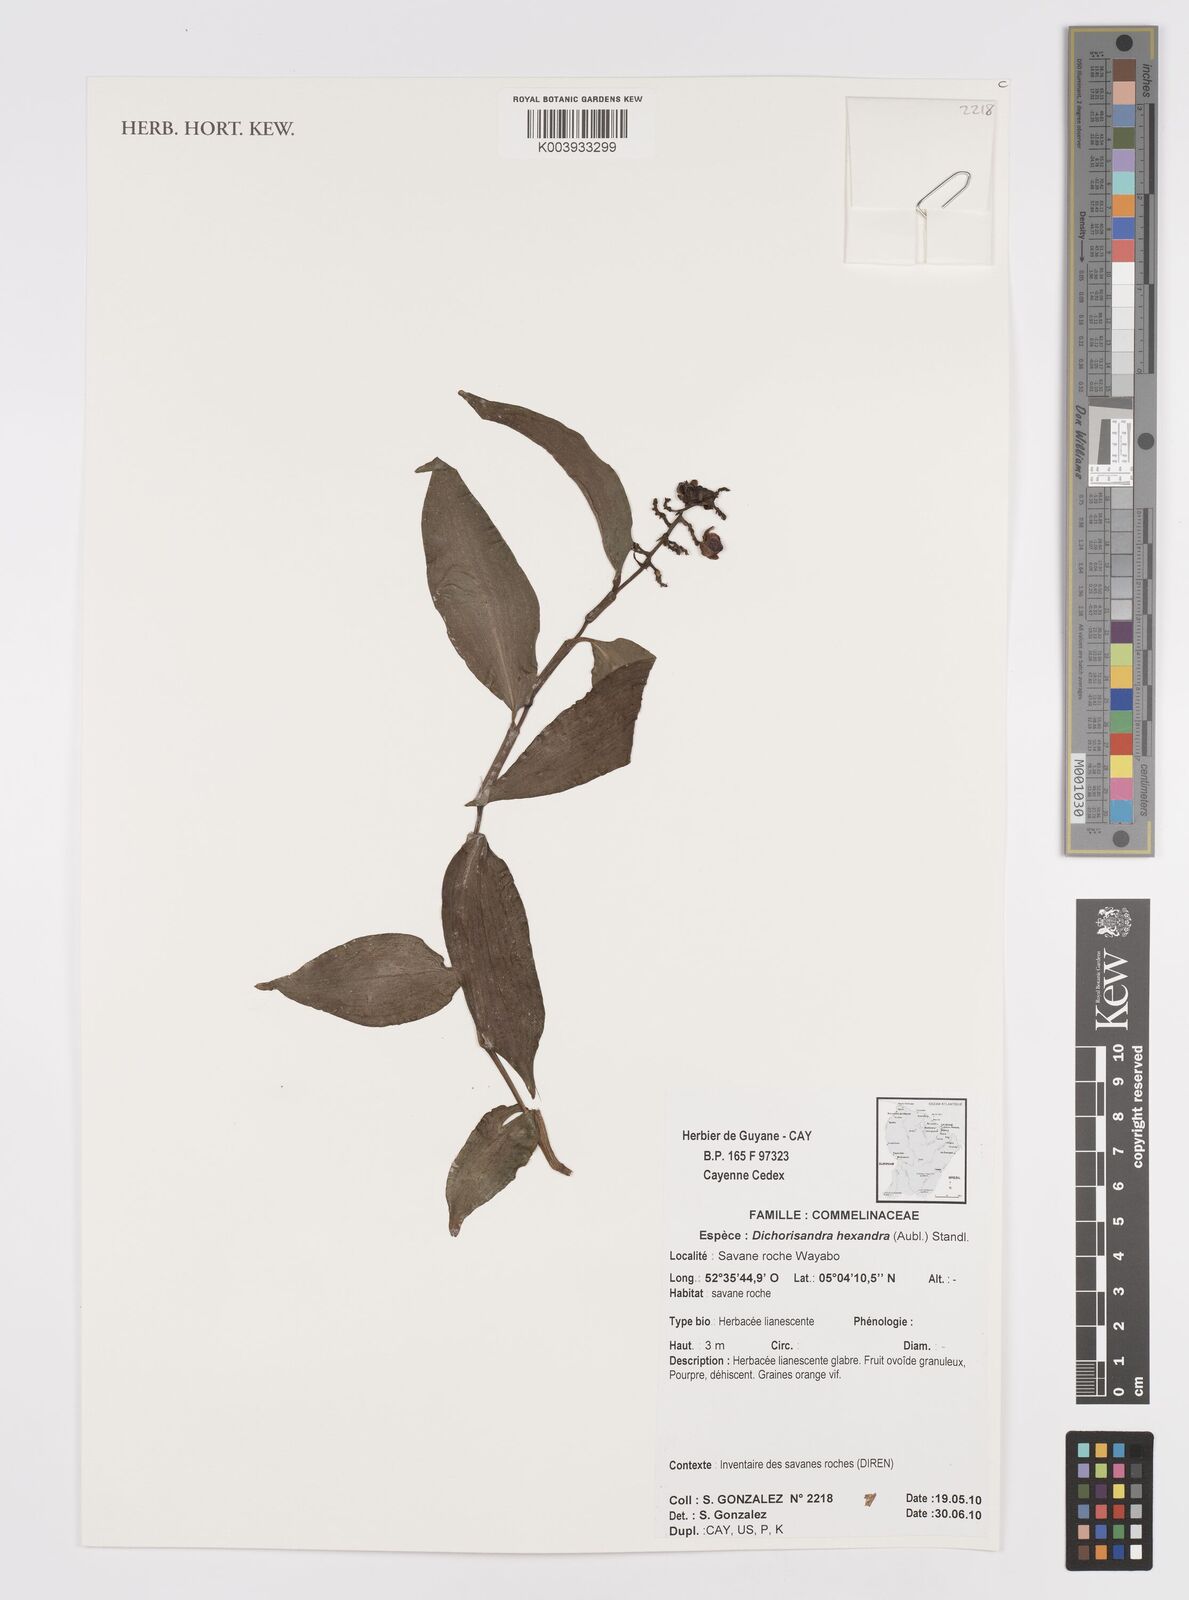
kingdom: Plantae
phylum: Tracheophyta
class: Liliopsida
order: Commelinales
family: Commelinaceae
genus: Dichorisandra
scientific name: Dichorisandra hexandra
